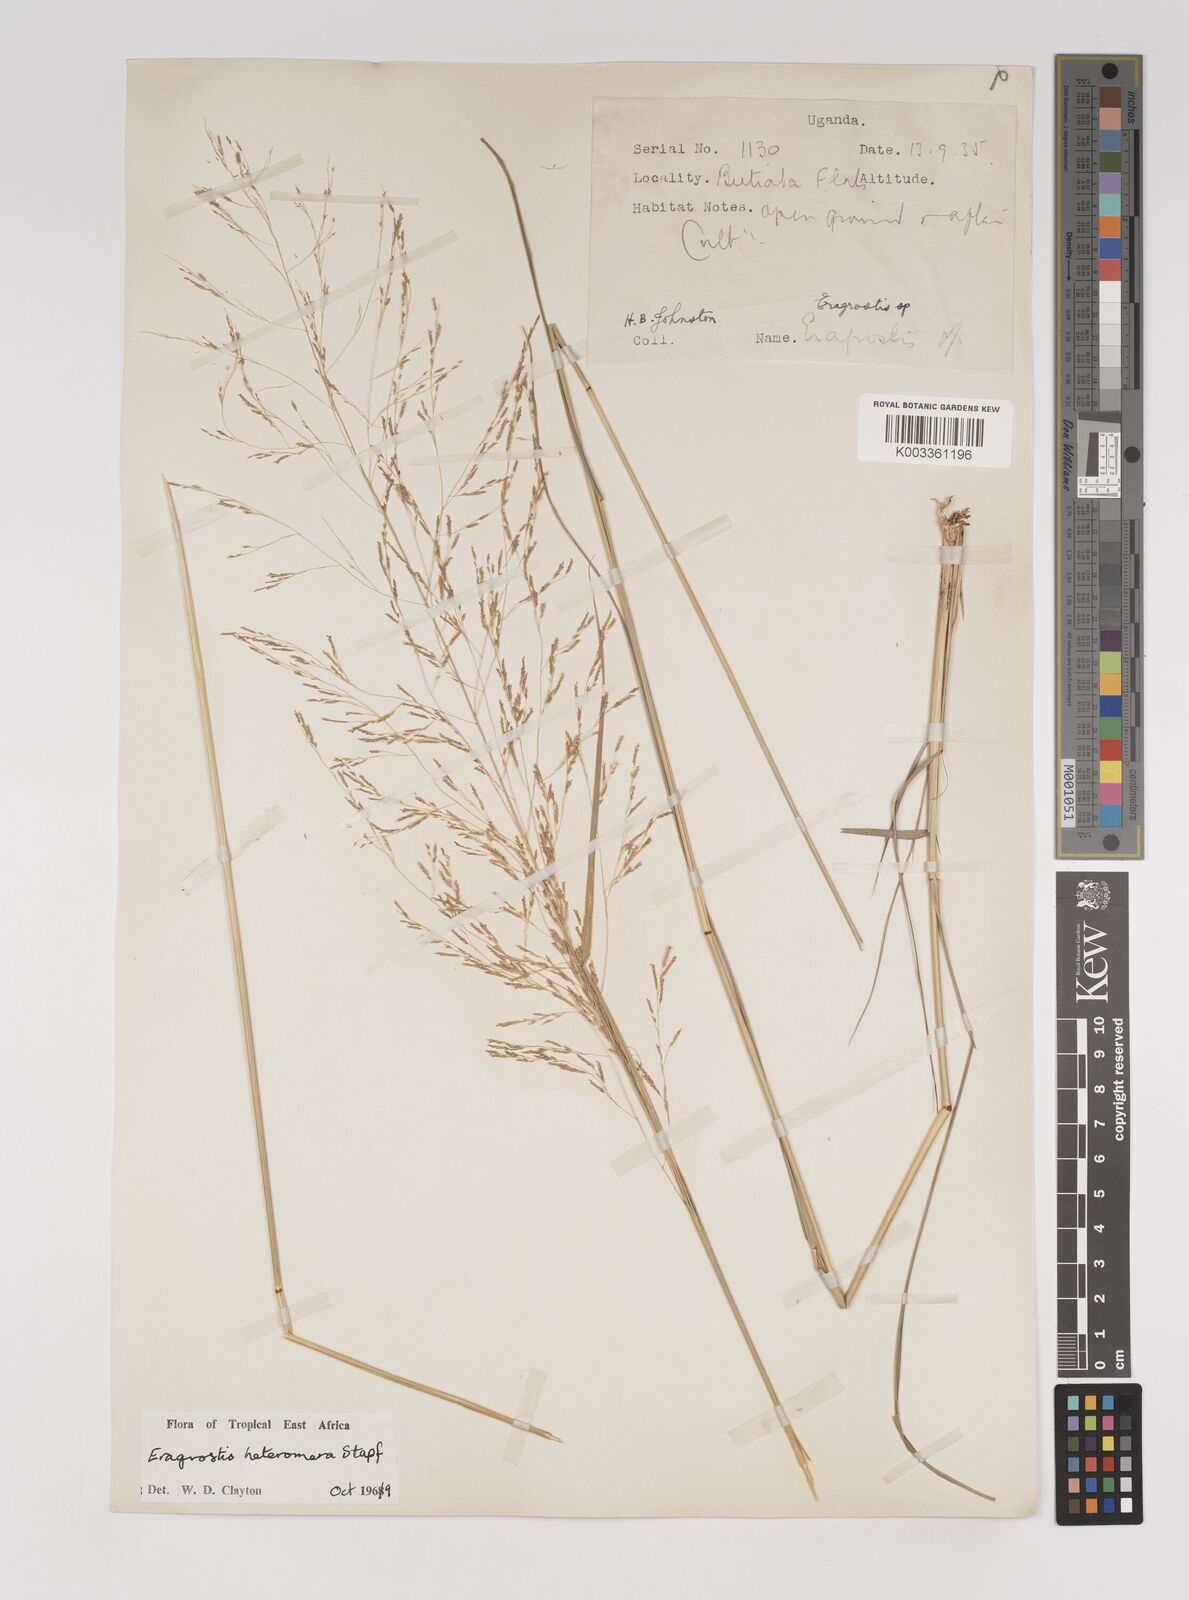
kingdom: Plantae
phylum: Tracheophyta
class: Liliopsida
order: Poales
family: Poaceae
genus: Eragrostis
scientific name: Eragrostis heteromera
